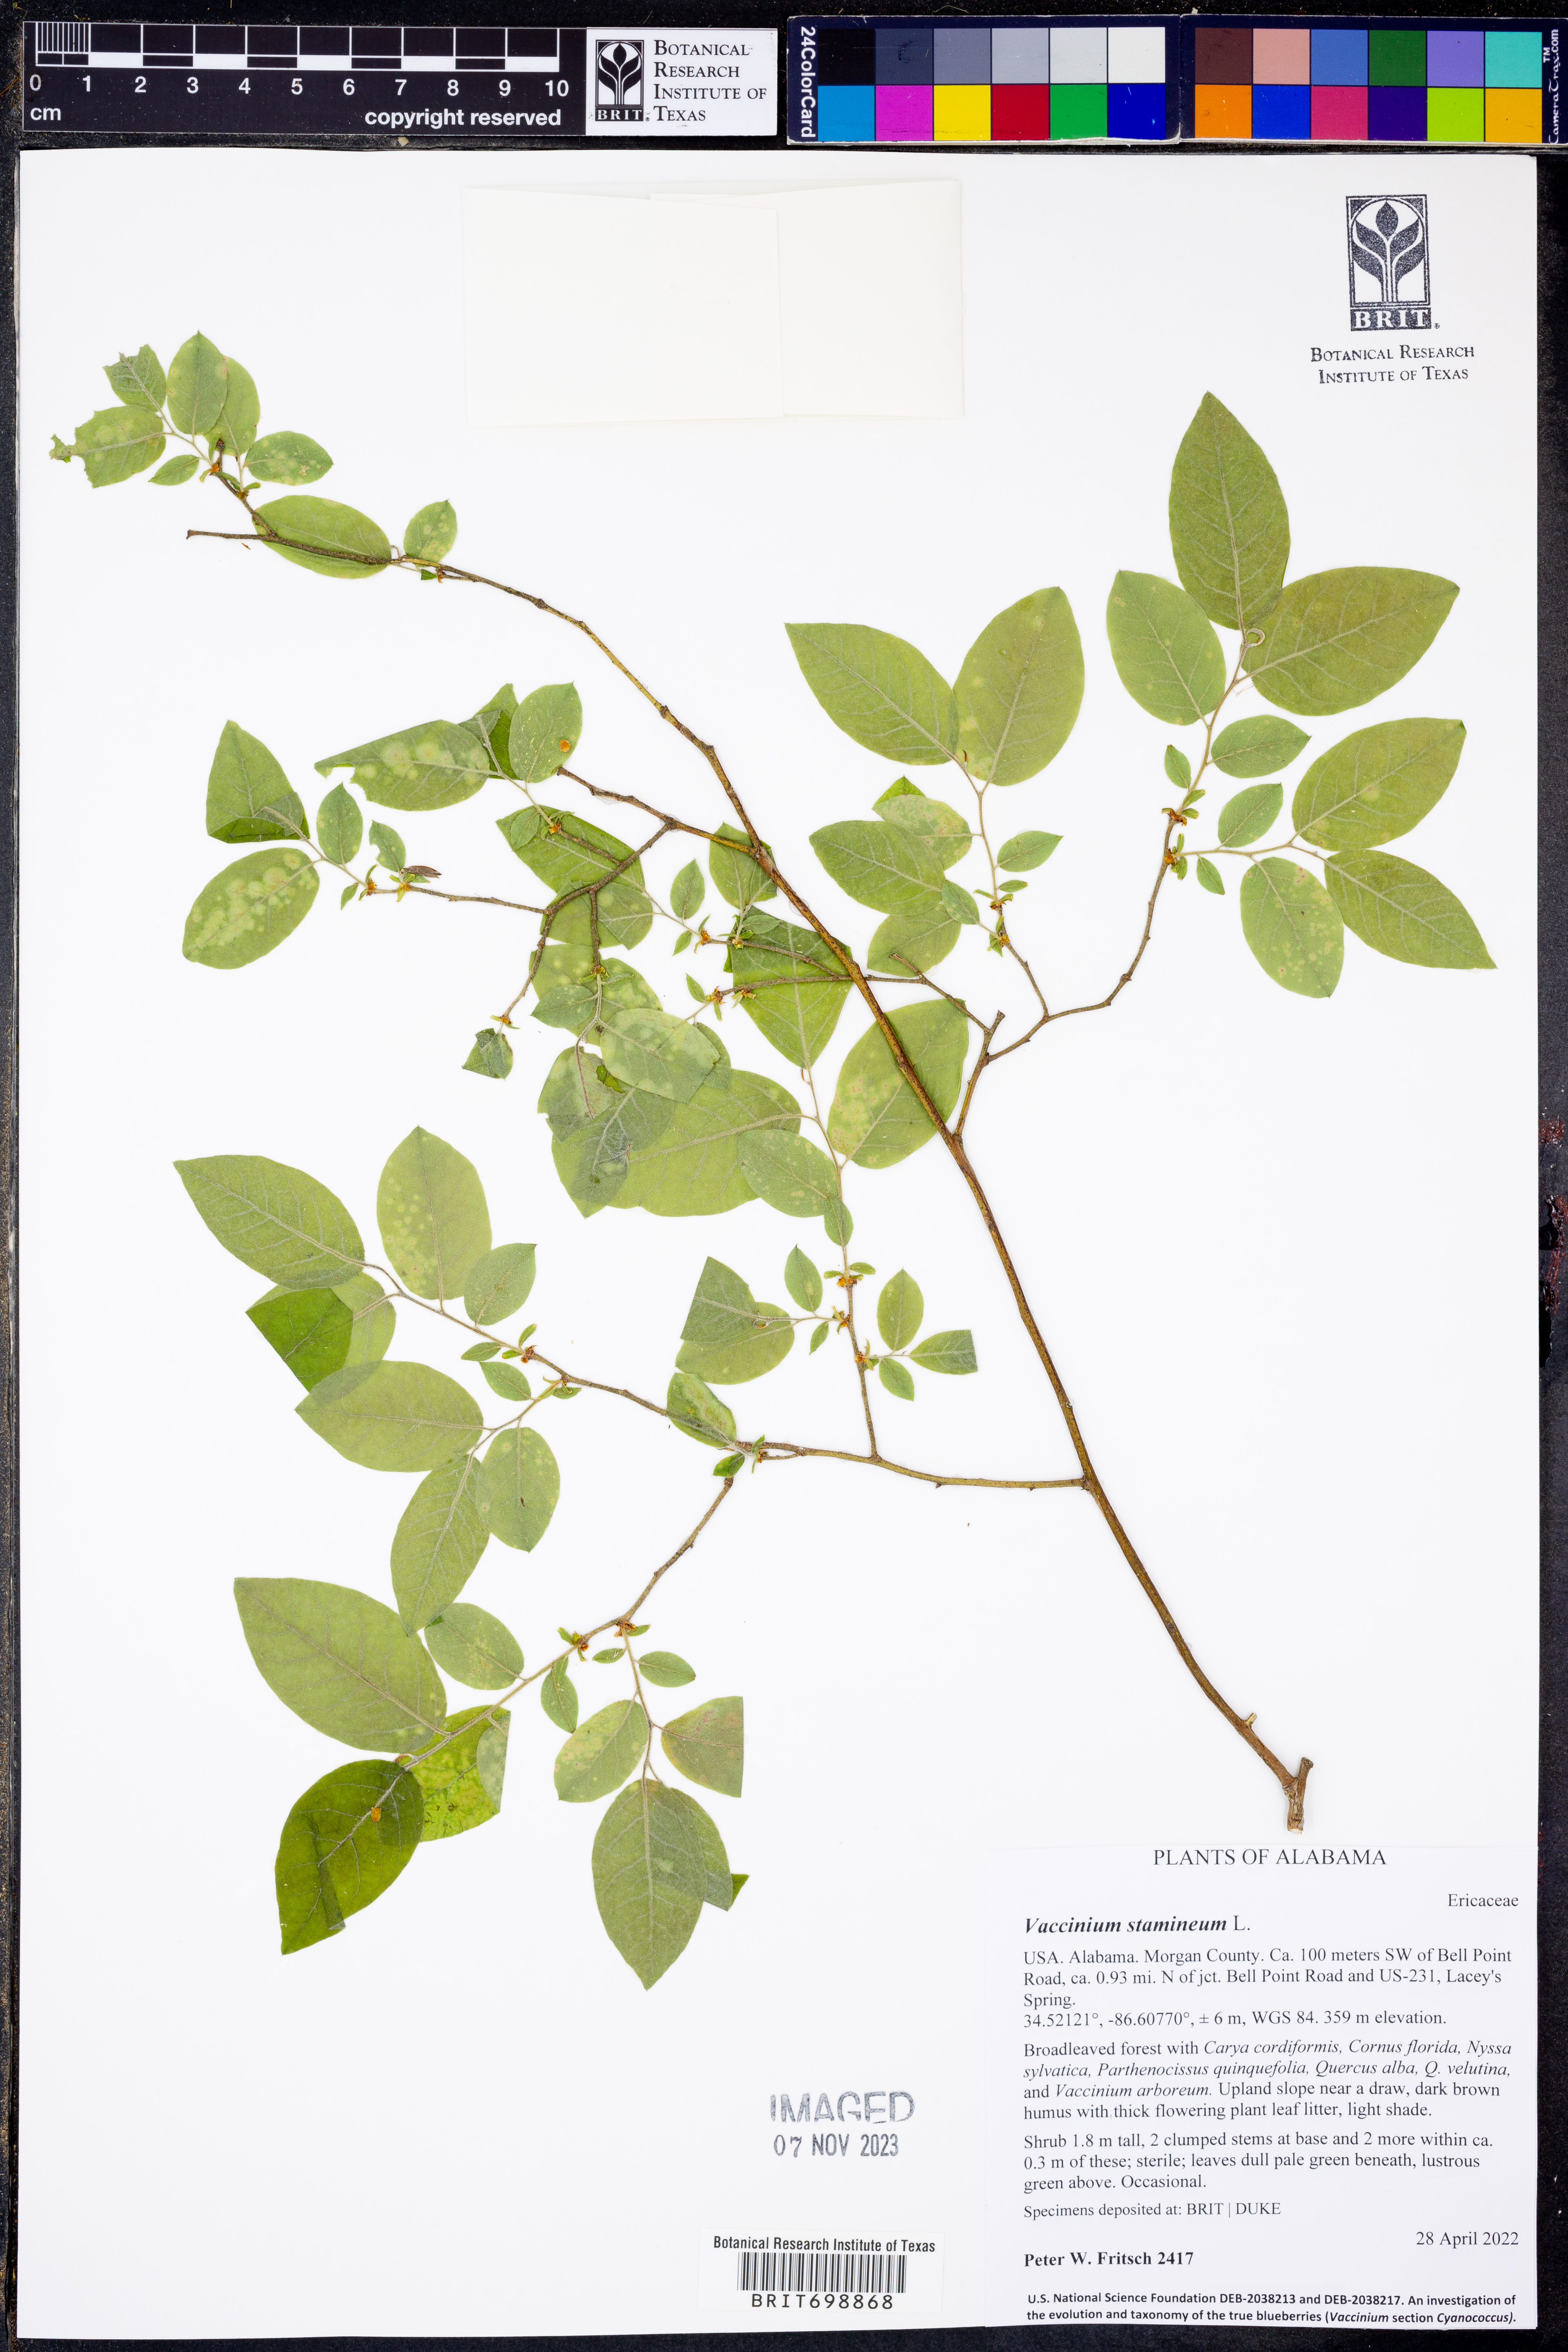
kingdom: Plantae
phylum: Tracheophyta
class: Magnoliopsida
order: Ericales
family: Ericaceae
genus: Vaccinium
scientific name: Vaccinium stamineum
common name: Deerberry
